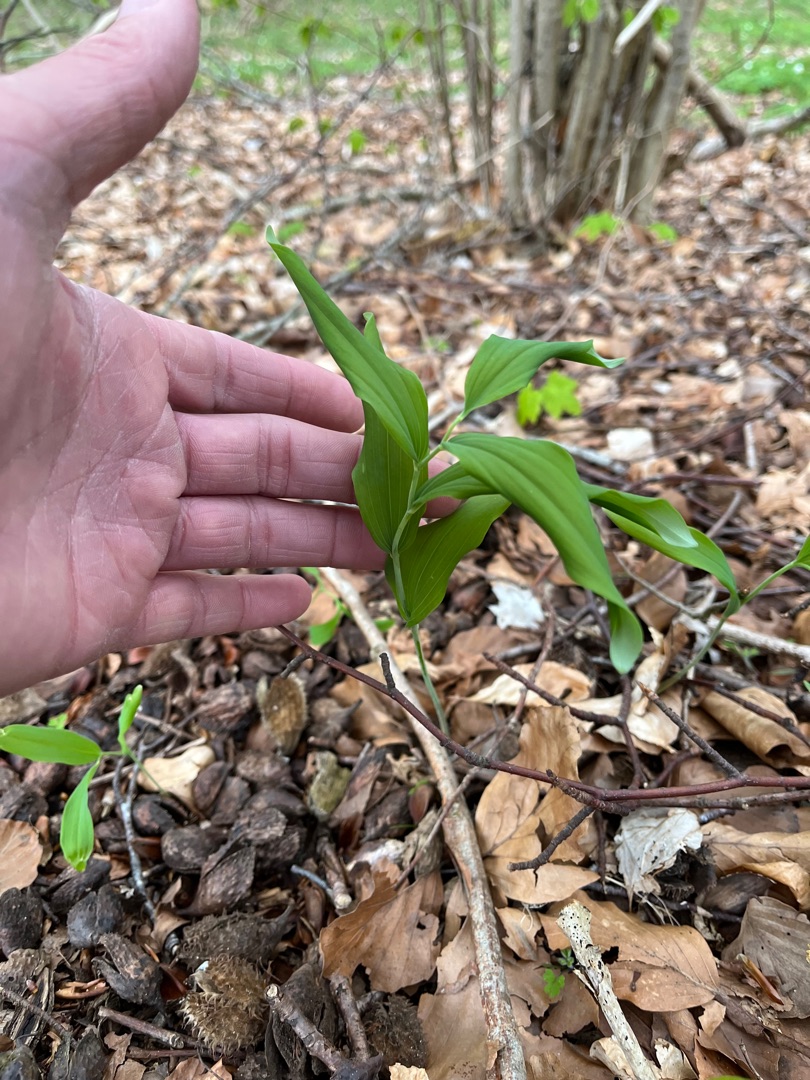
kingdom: Plantae
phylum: Tracheophyta
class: Liliopsida
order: Asparagales
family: Asparagaceae
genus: Polygonatum
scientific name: Polygonatum multiflorum
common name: Stor konval
